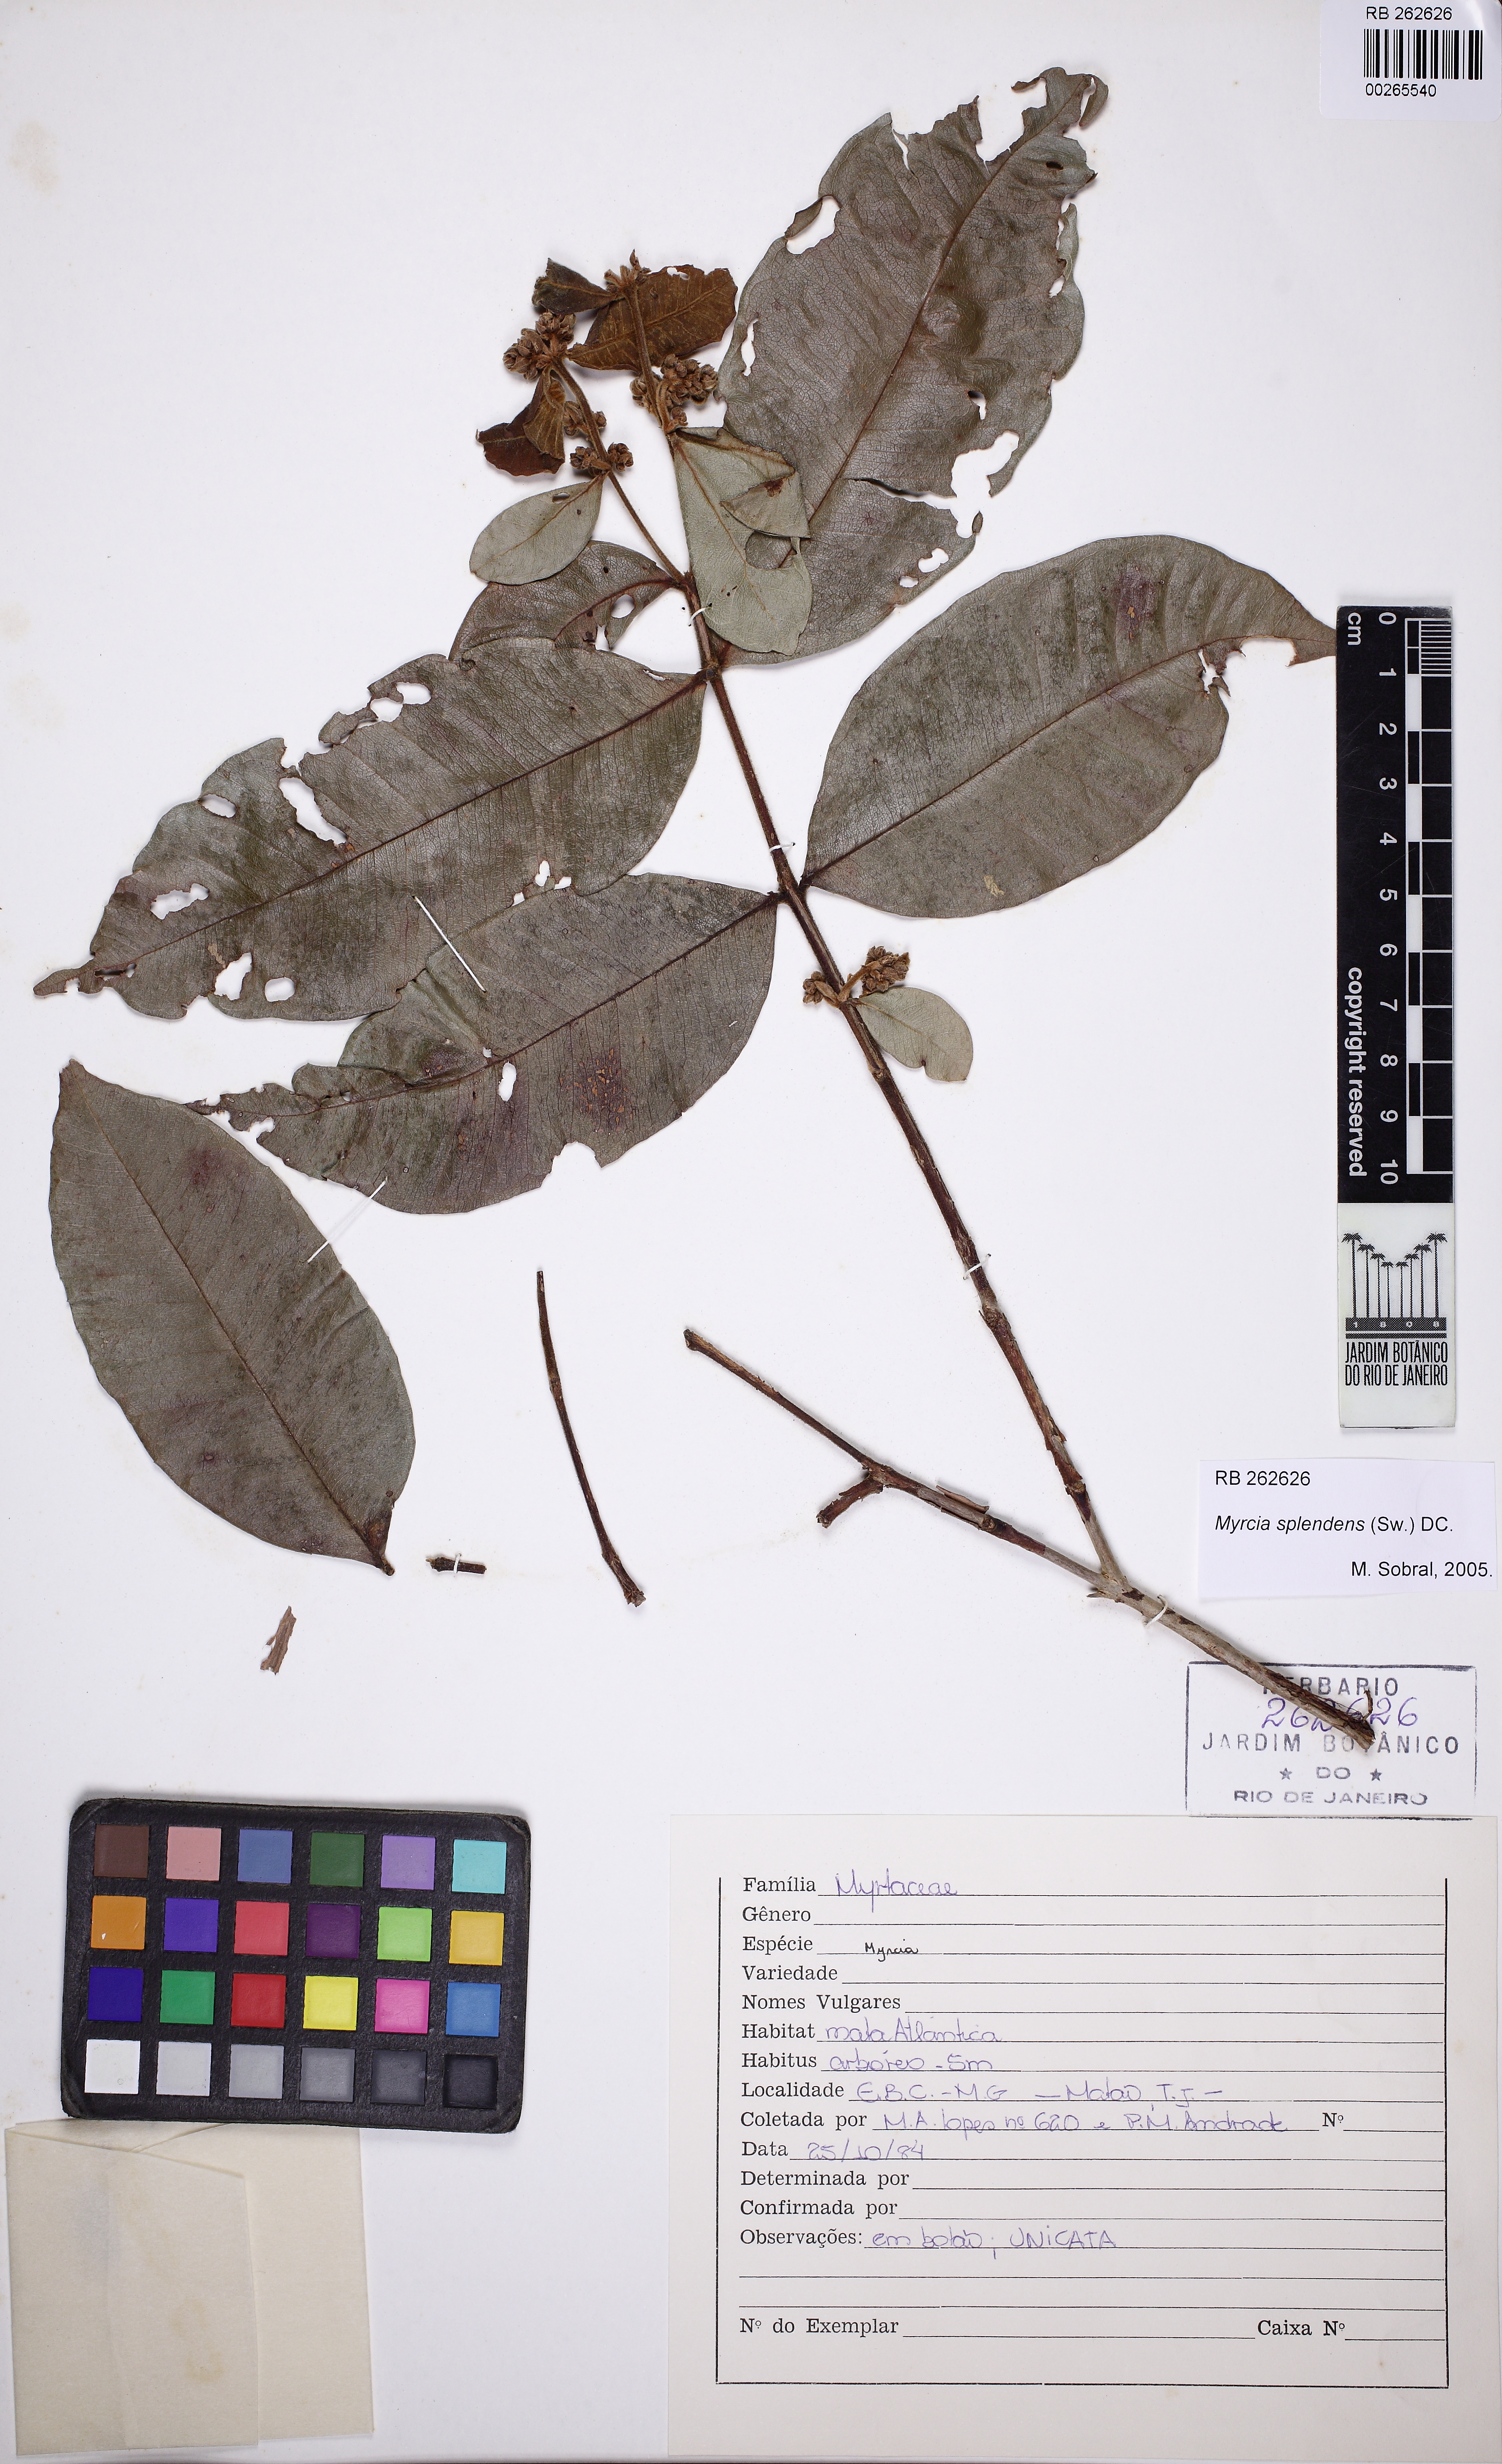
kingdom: Plantae
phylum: Tracheophyta
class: Magnoliopsida
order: Myrtales
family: Myrtaceae
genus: Myrcia
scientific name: Myrcia splendens
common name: Surinam cherry
